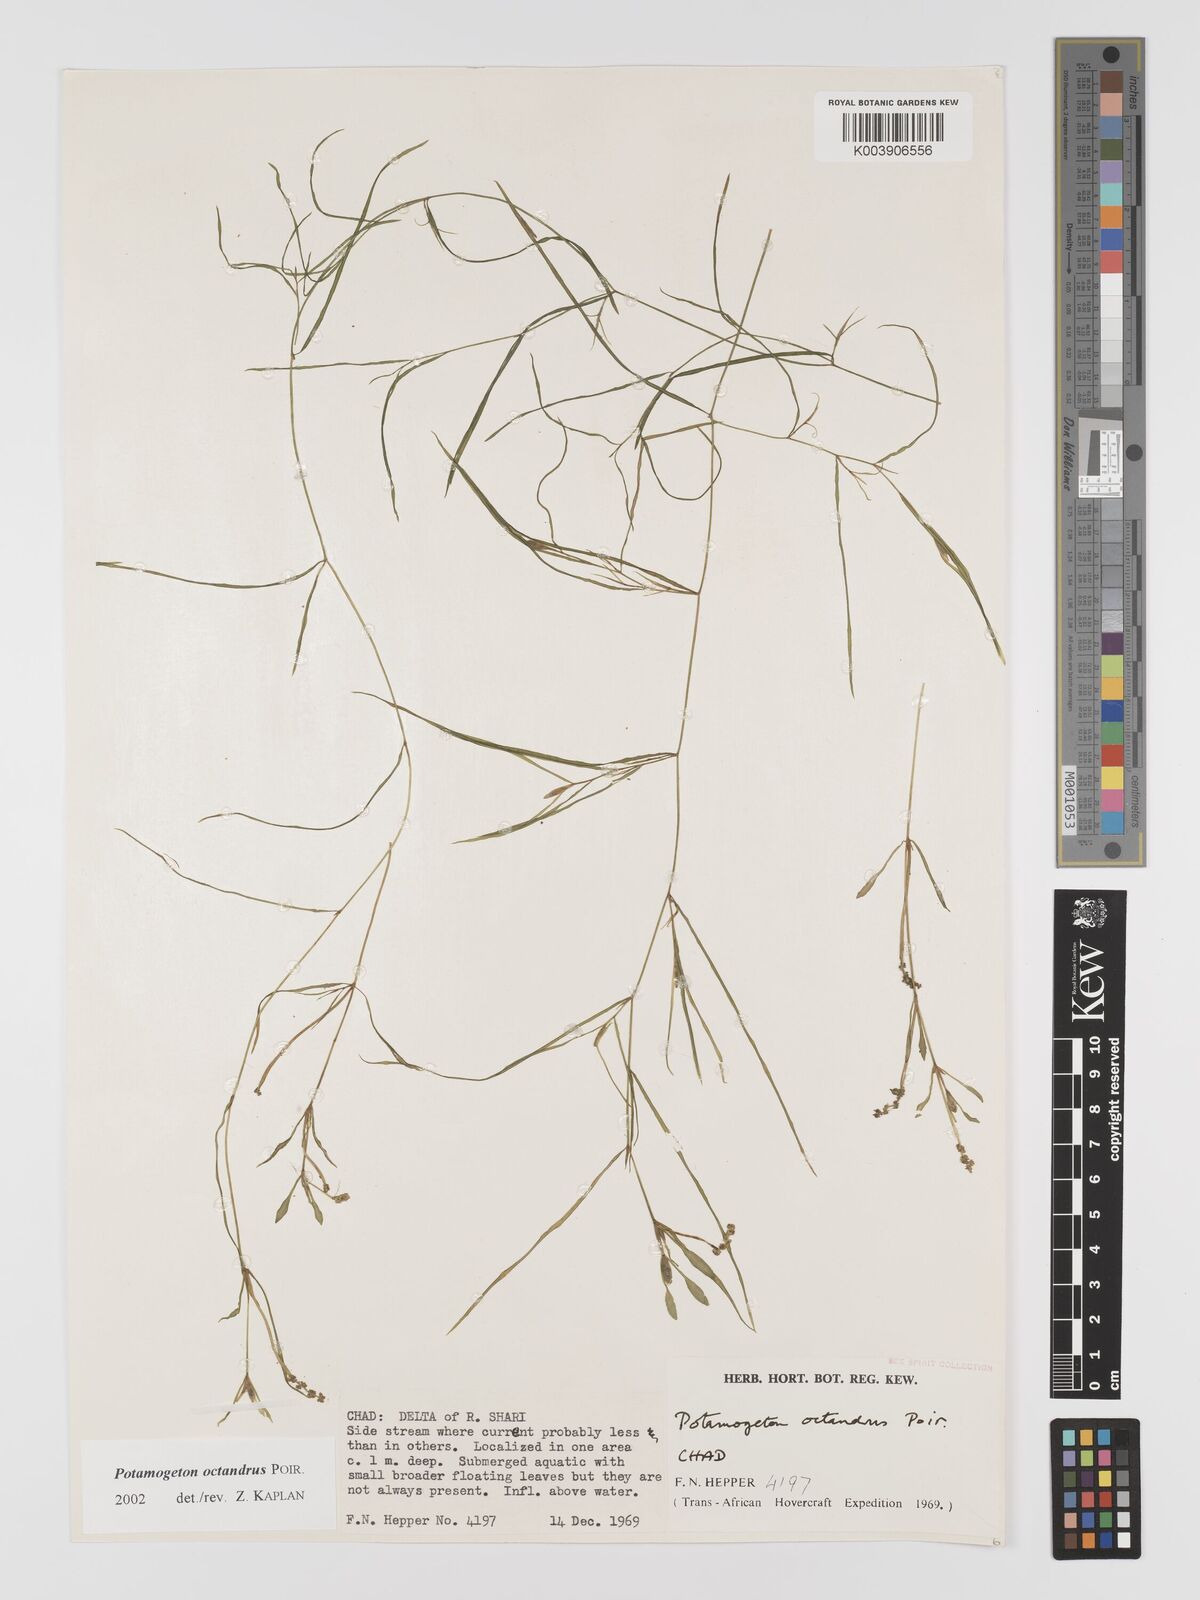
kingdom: Plantae
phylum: Tracheophyta
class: Liliopsida
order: Alismatales
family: Potamogetonaceae
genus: Potamogeton
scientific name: Potamogeton octandrus
